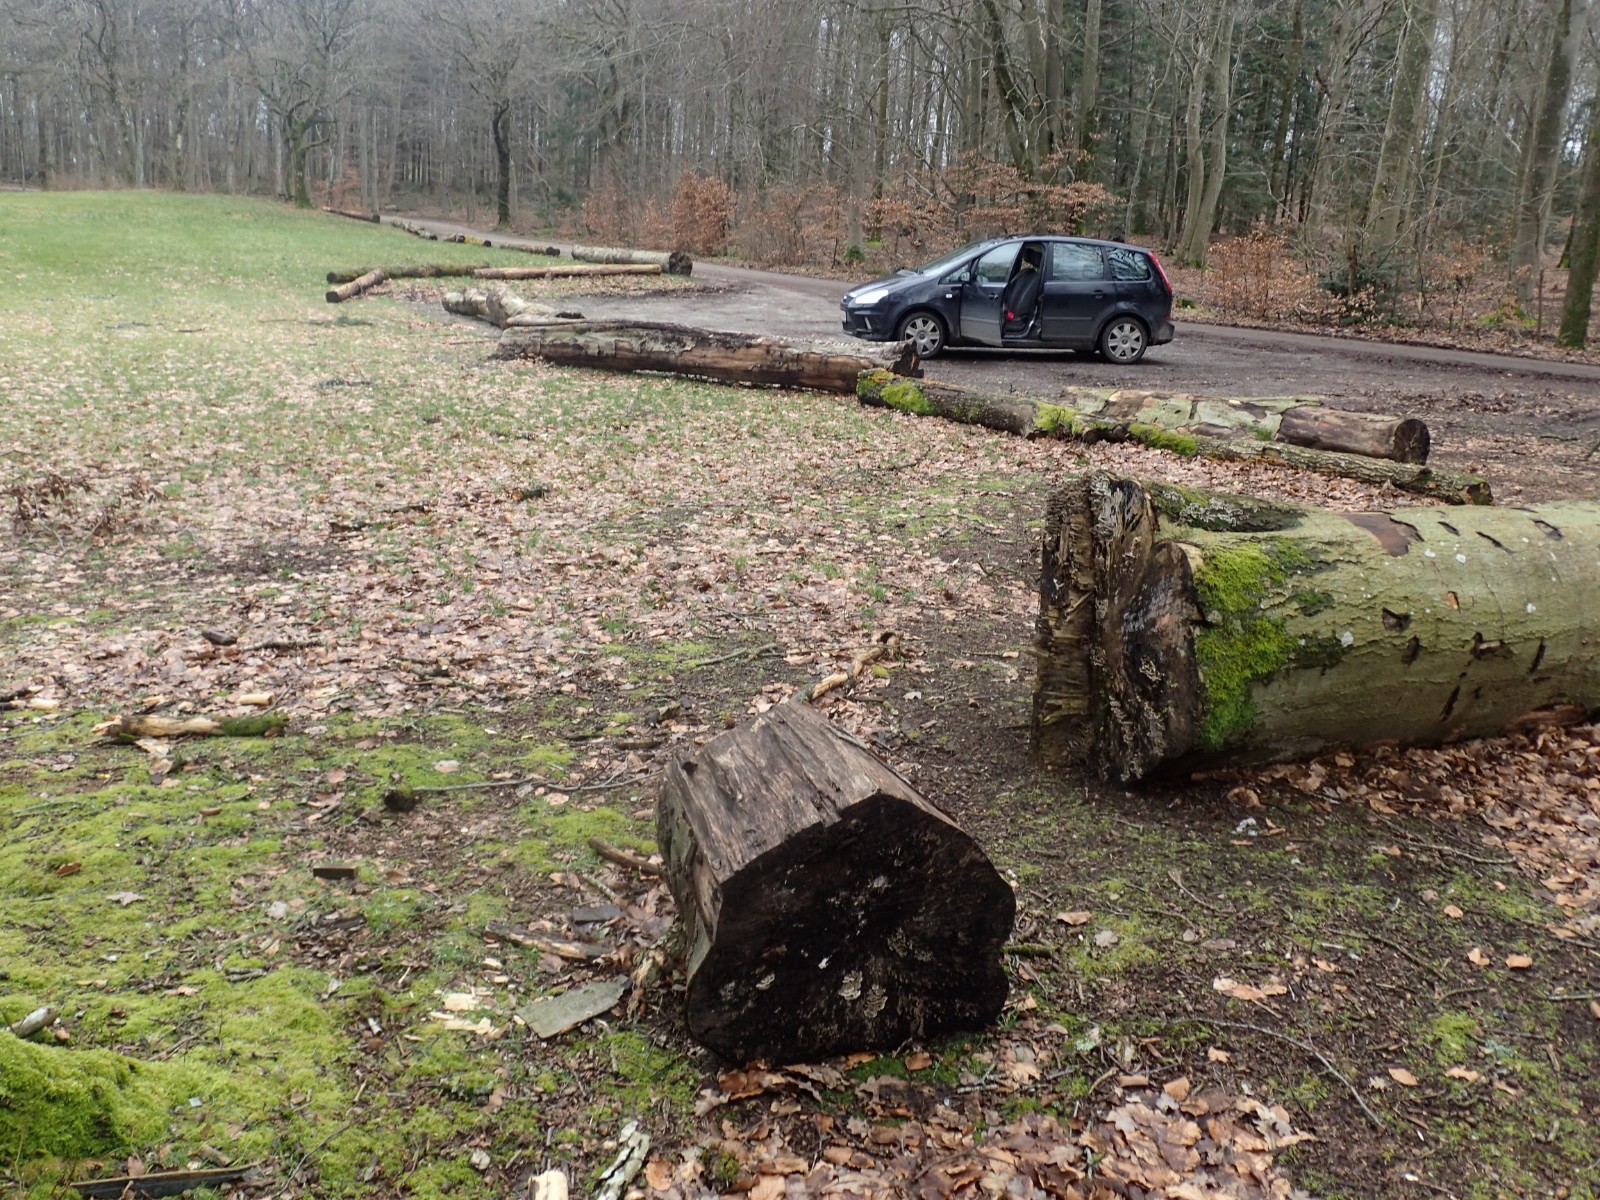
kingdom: Fungi
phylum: Basidiomycota
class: Agaricomycetes
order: Polyporales
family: Polyporaceae
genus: Lenzites
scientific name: Lenzites betulinus
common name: birke-læderporesvamp
